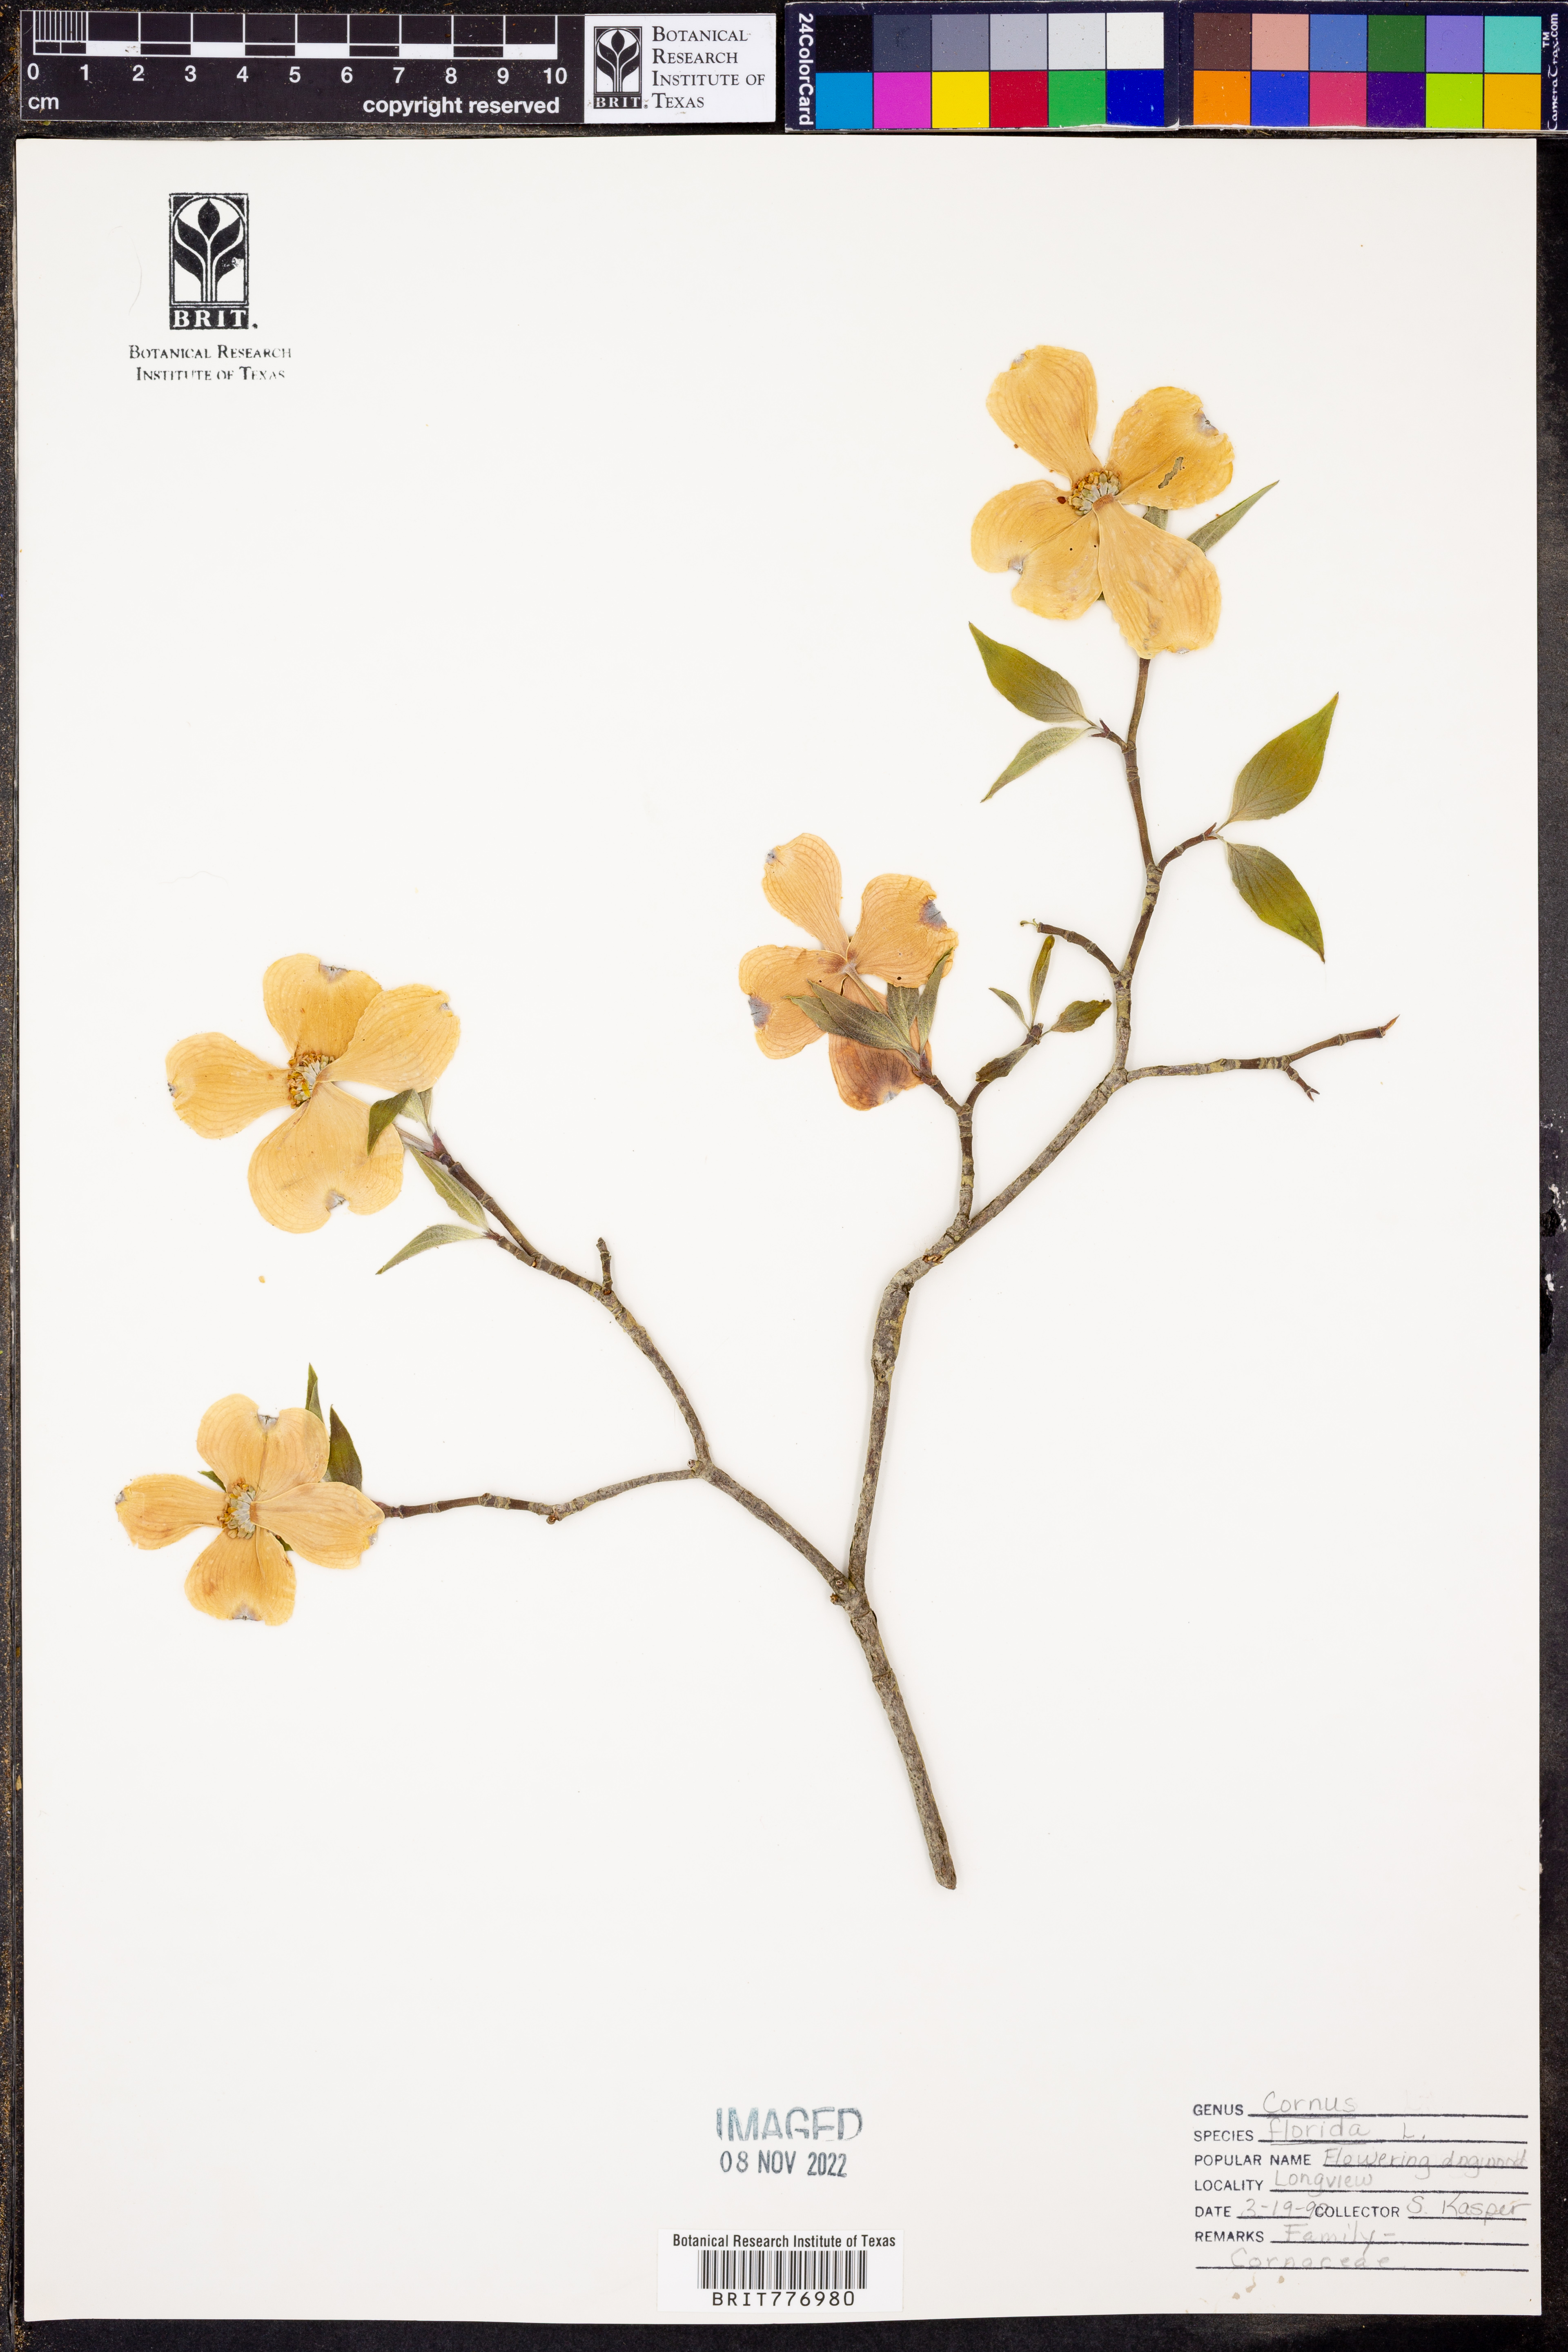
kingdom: Plantae
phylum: Tracheophyta
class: Magnoliopsida
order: Cornales
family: Cornaceae
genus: Cornus
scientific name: Cornus florida
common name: Flowering dogwood
